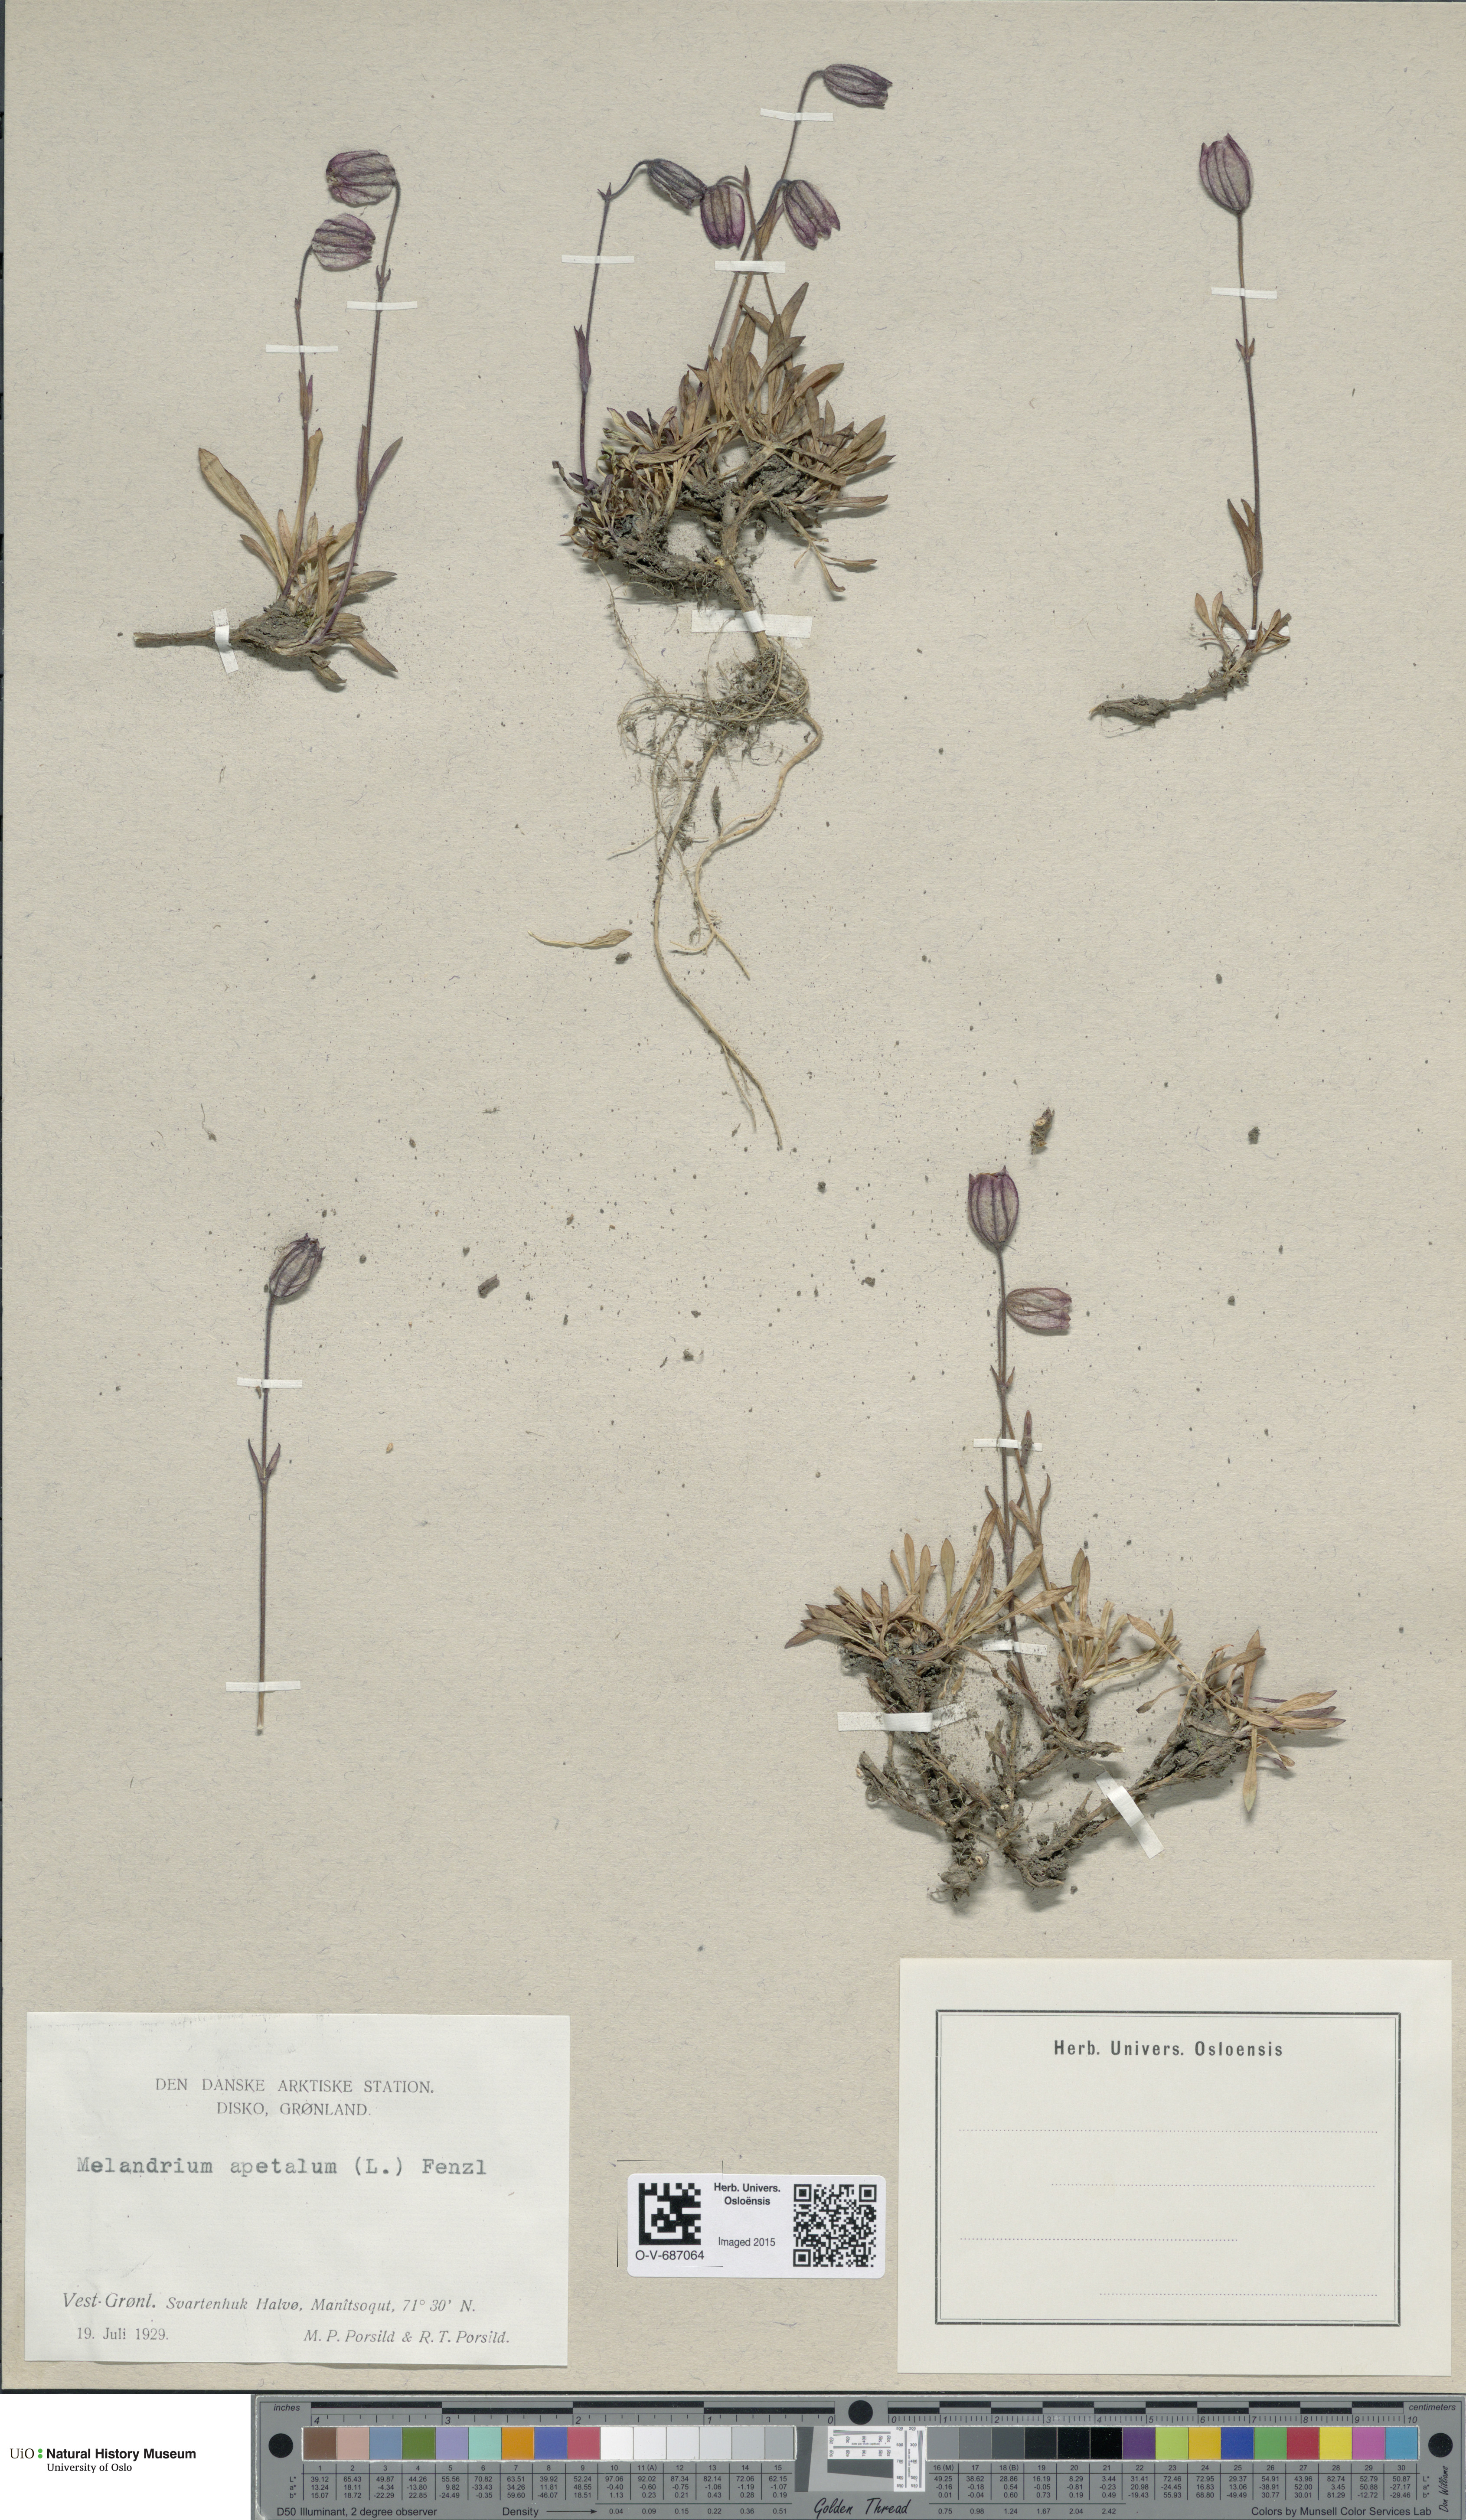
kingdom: Plantae
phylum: Tracheophyta
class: Magnoliopsida
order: Caryophyllales
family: Caryophyllaceae
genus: Silene
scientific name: Silene wahlbergella
